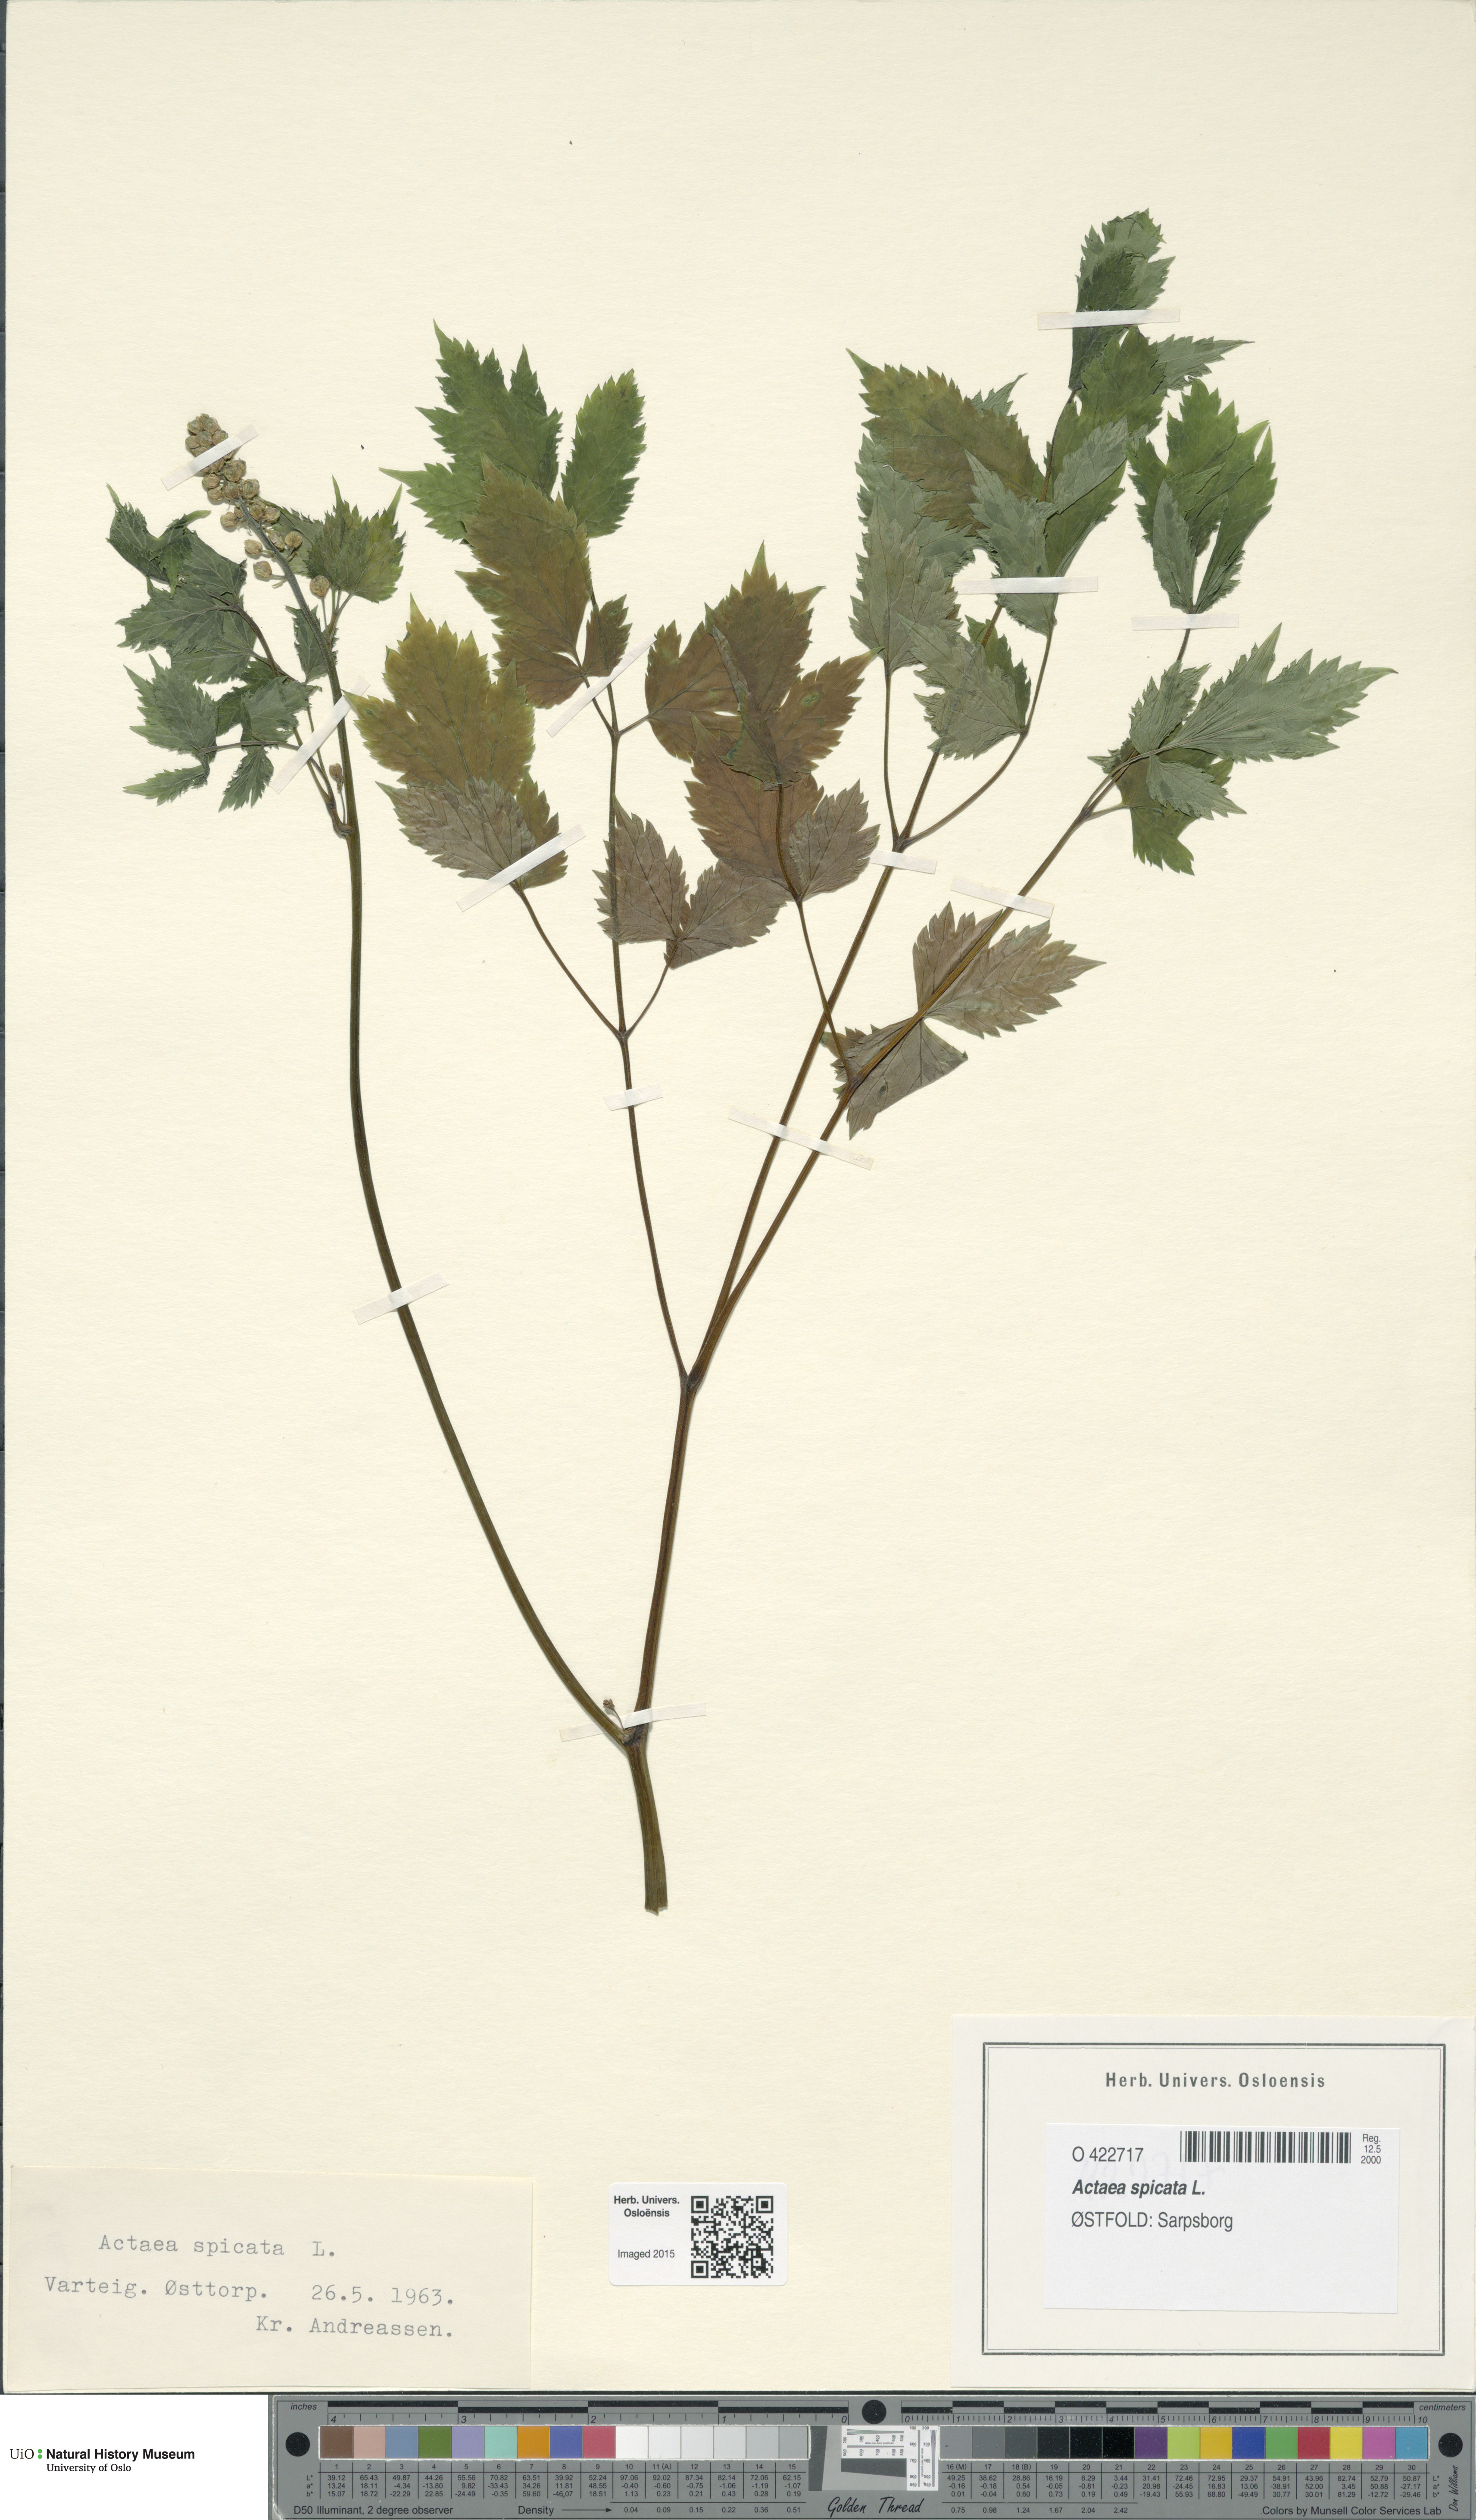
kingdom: Plantae
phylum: Tracheophyta
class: Magnoliopsida
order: Ranunculales
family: Ranunculaceae
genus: Actaea
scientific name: Actaea spicata
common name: Baneberry
